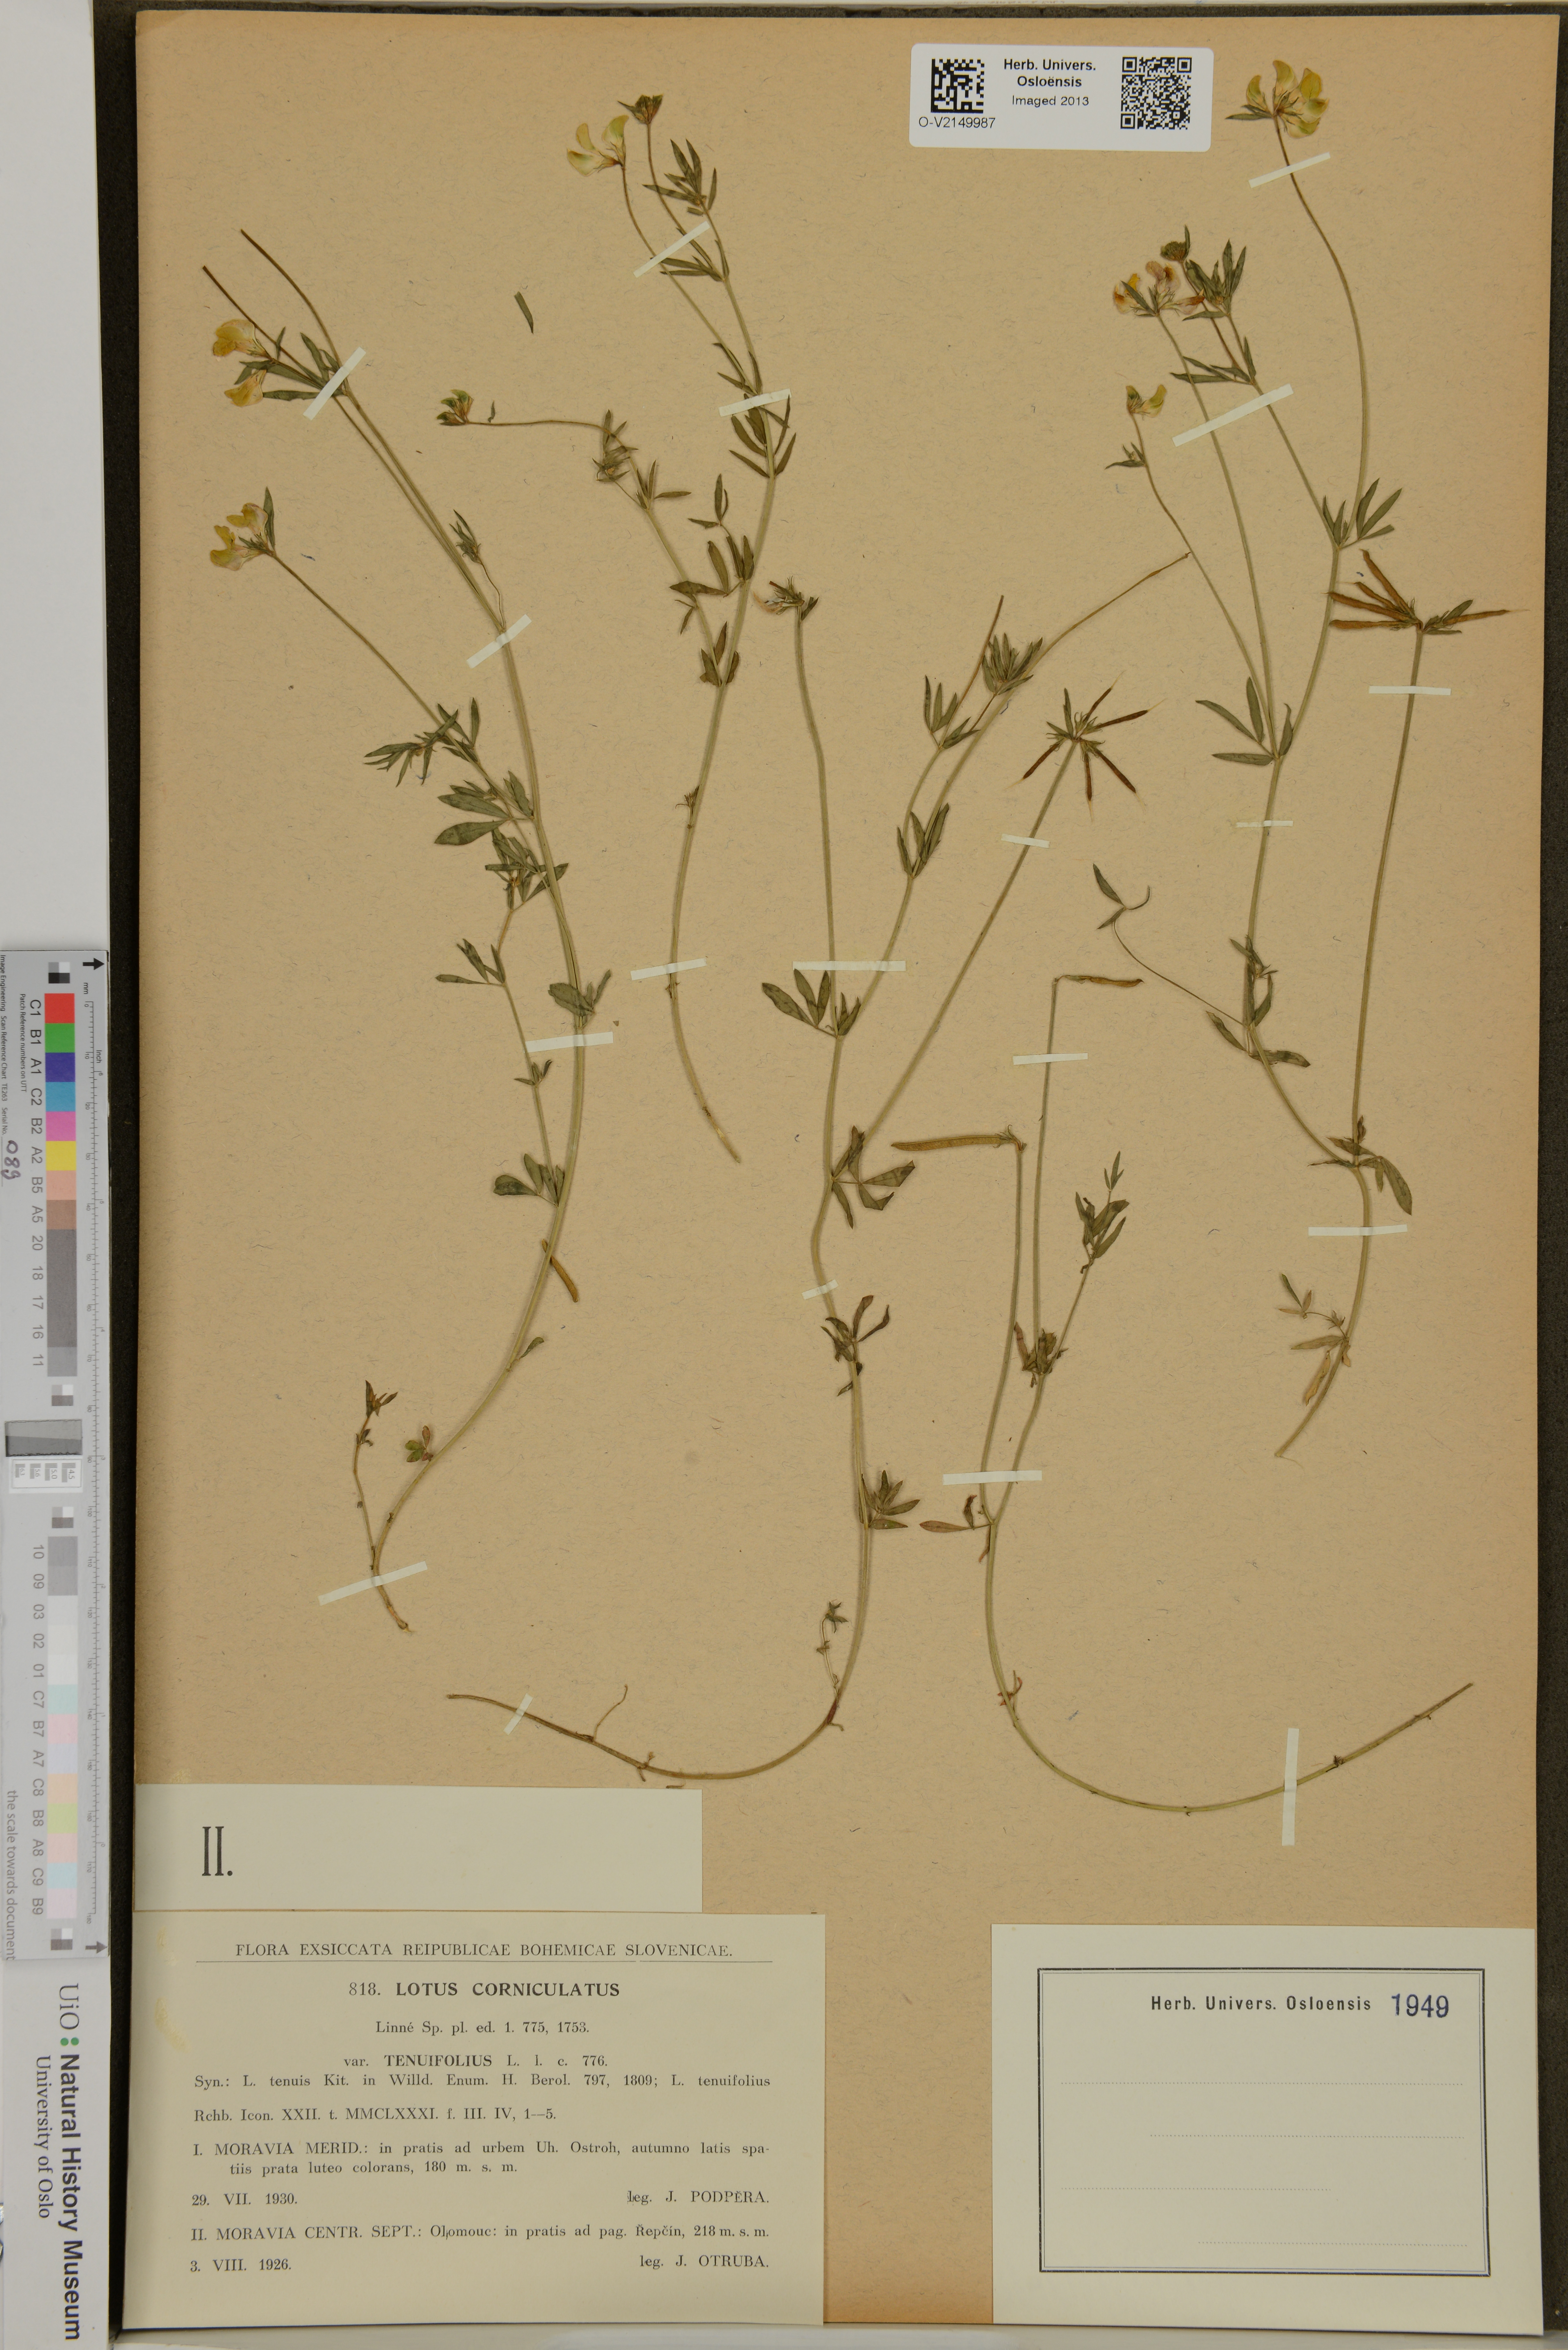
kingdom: Plantae
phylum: Tracheophyta
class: Magnoliopsida
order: Fabales
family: Fabaceae
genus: Lotus
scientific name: Lotus corniculatus
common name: Common bird's-foot-trefoil
